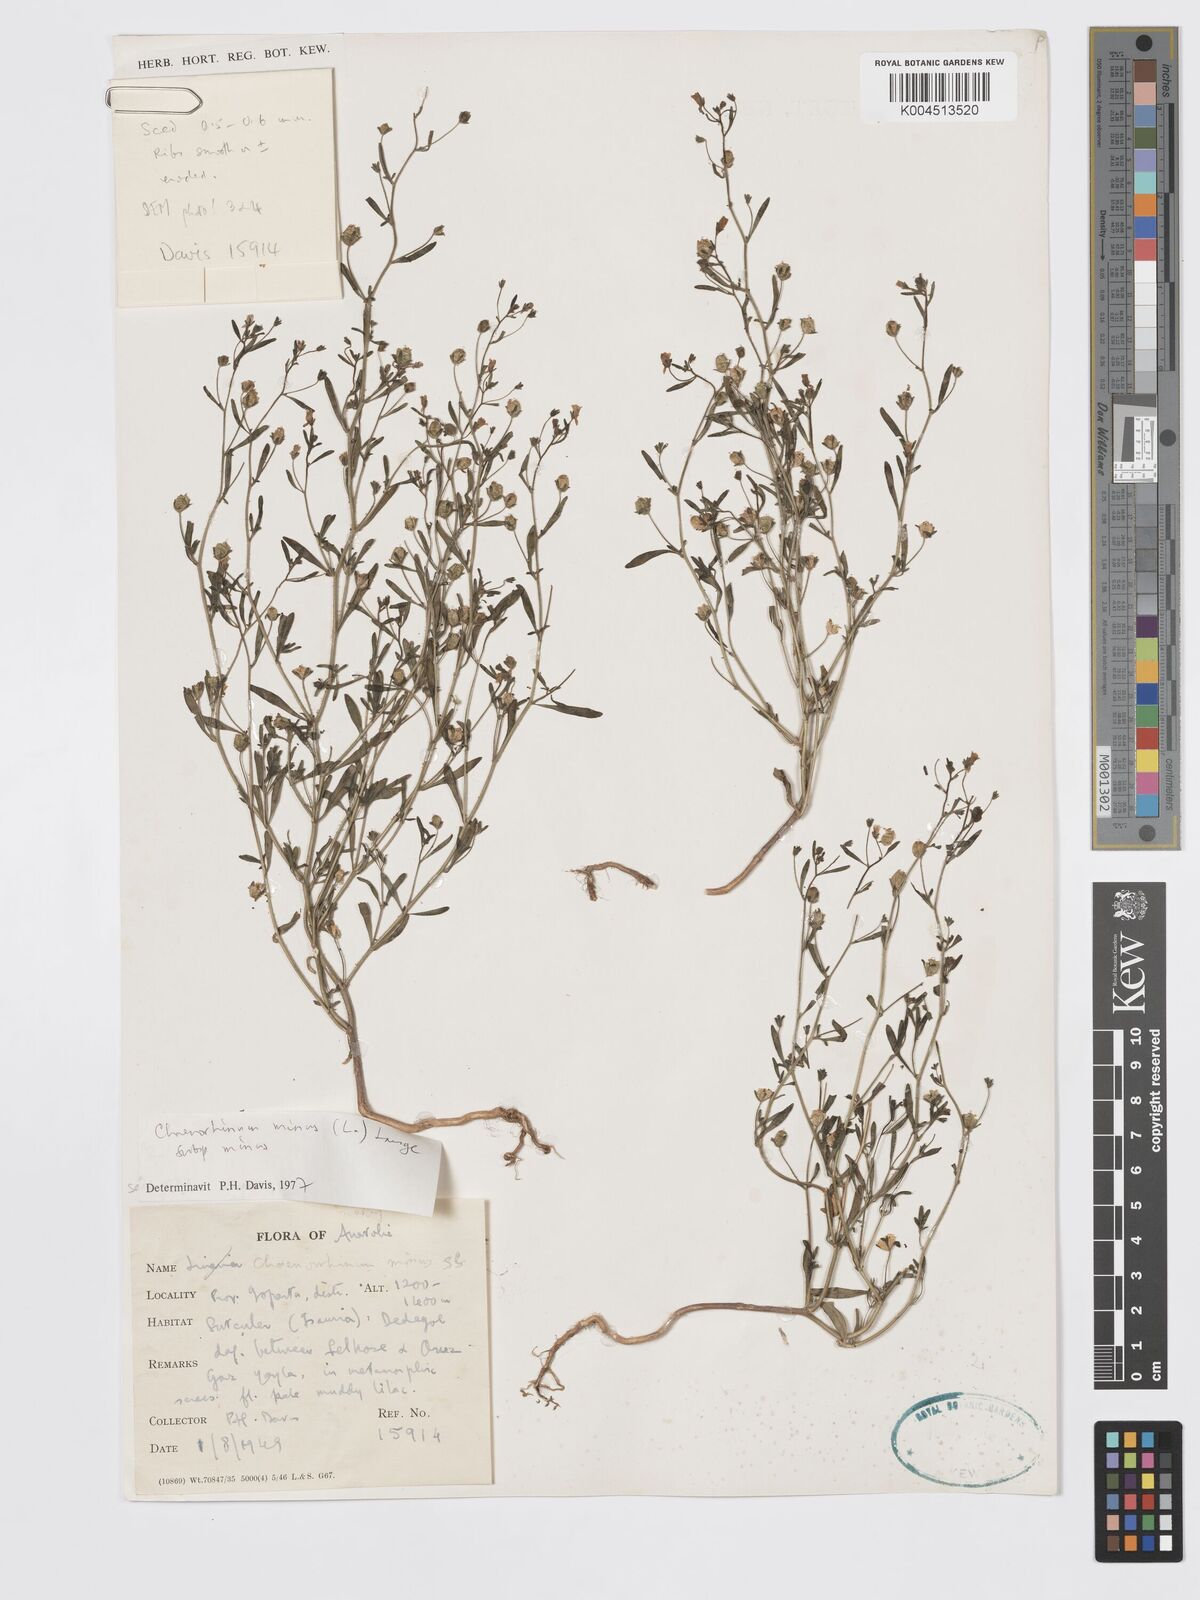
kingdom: Plantae
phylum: Tracheophyta
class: Magnoliopsida
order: Lamiales
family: Plantaginaceae
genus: Chaenorhinum
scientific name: Chaenorhinum minus
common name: Dwarf snapdragon
